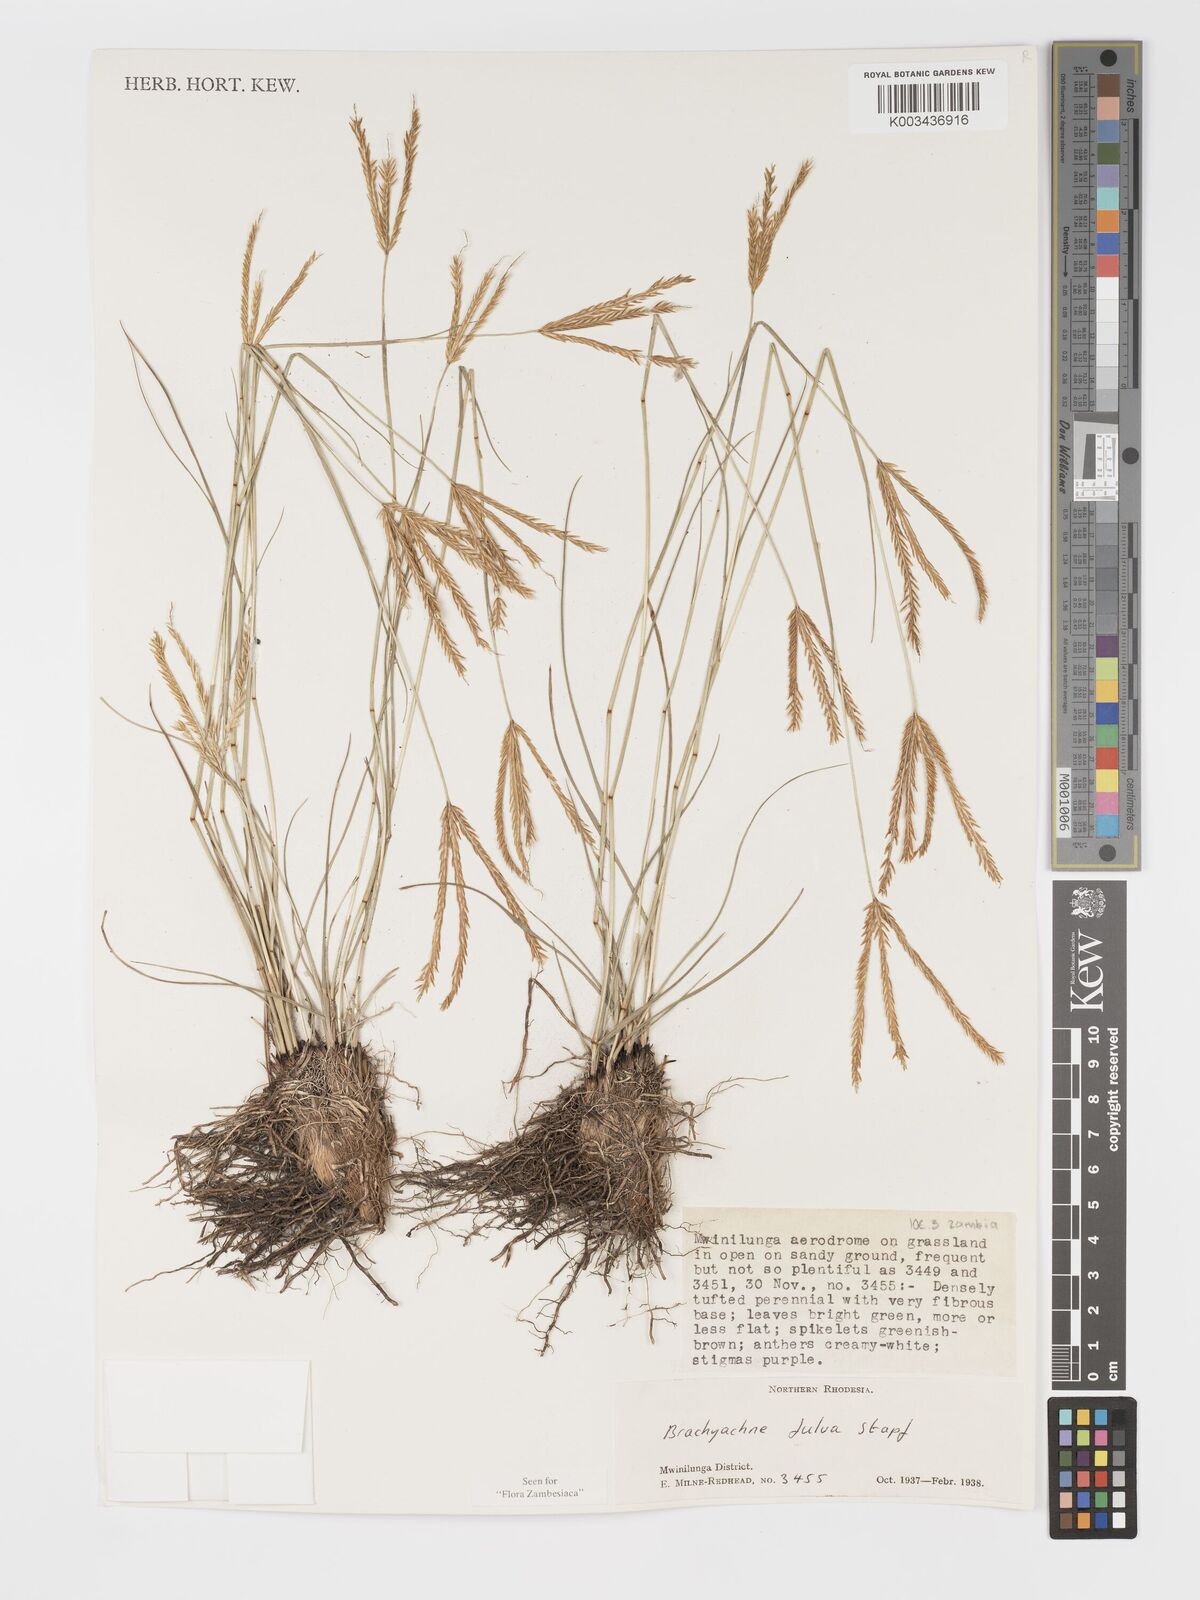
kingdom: Plantae
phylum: Tracheophyta
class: Liliopsida
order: Poales
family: Poaceae
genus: Micrachne
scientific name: Micrachne fulva
